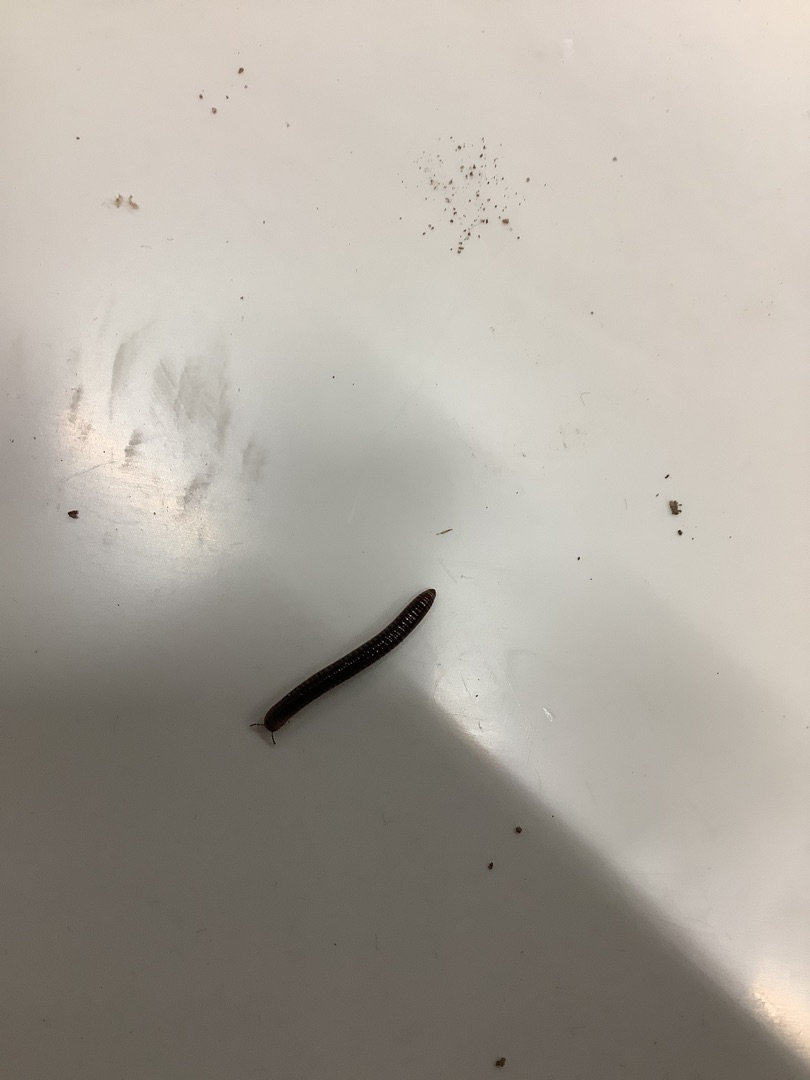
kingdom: Animalia
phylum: Arthropoda
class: Diplopoda
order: Julida
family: Julidae
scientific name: Julidae
